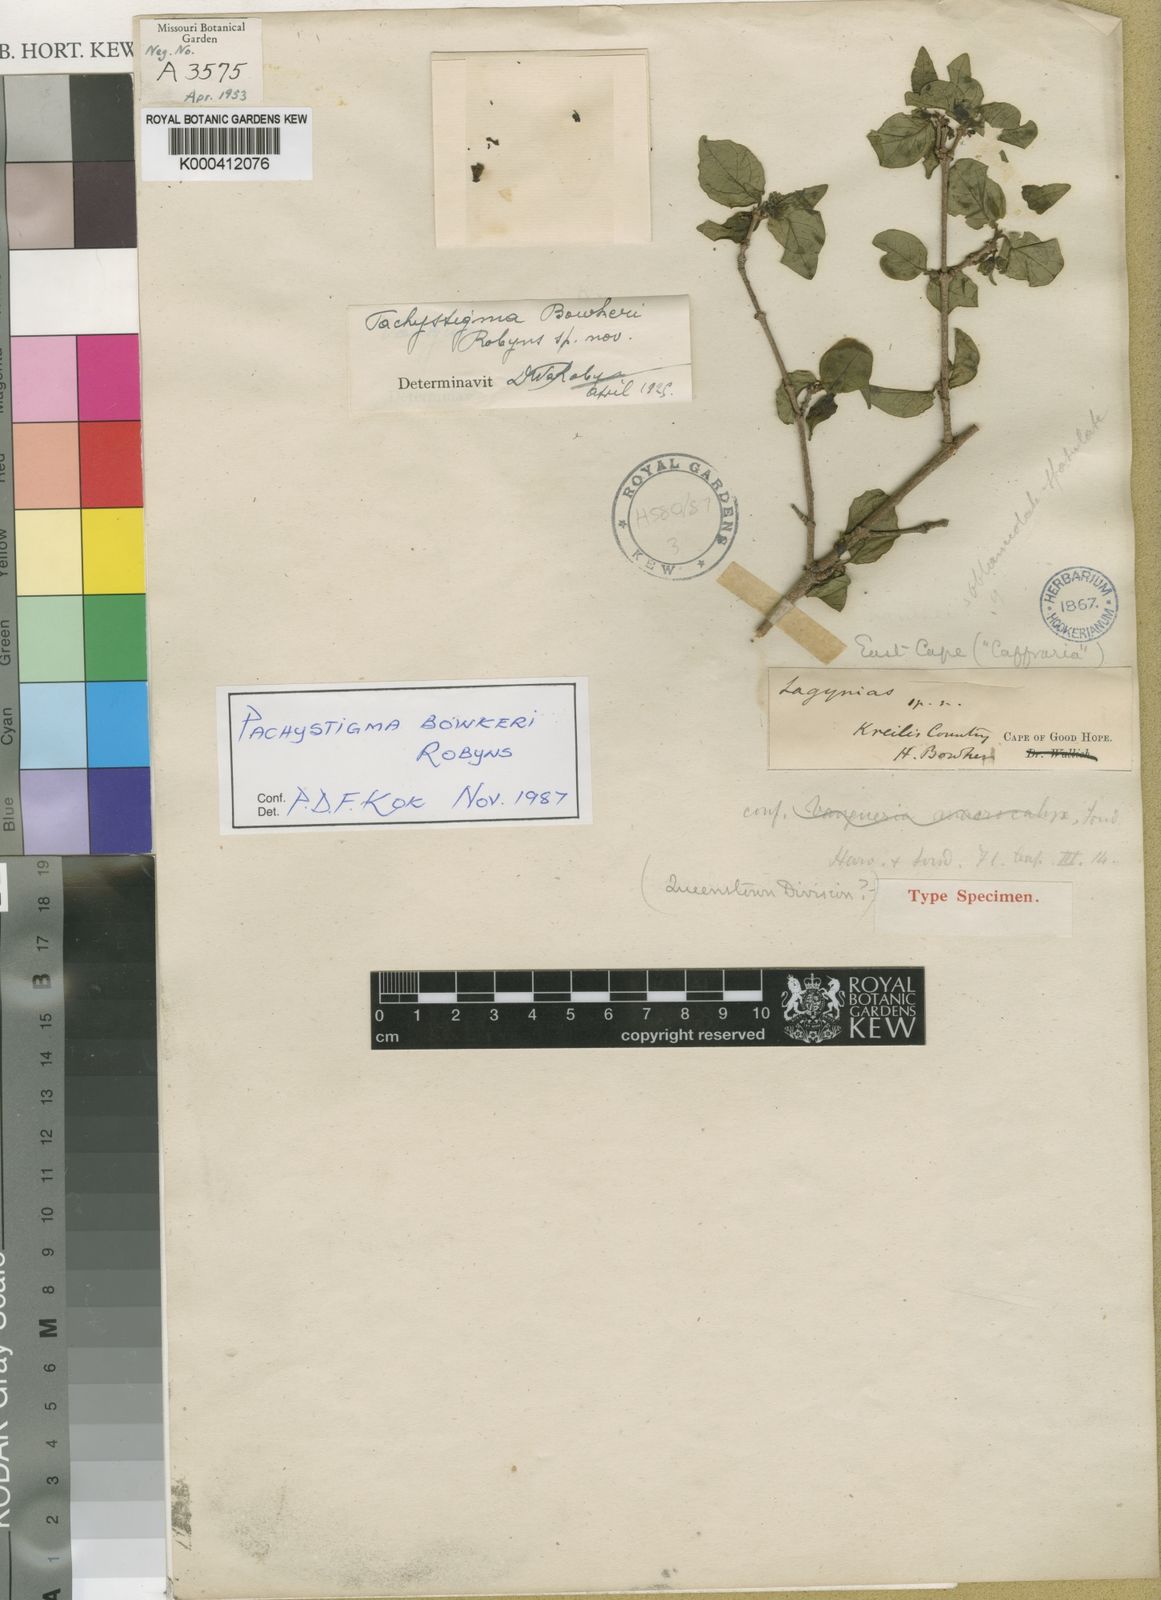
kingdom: Plantae
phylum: Tracheophyta
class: Magnoliopsida
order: Gentianales
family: Rubiaceae
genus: Vangueria
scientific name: Vangueria bowkeri
